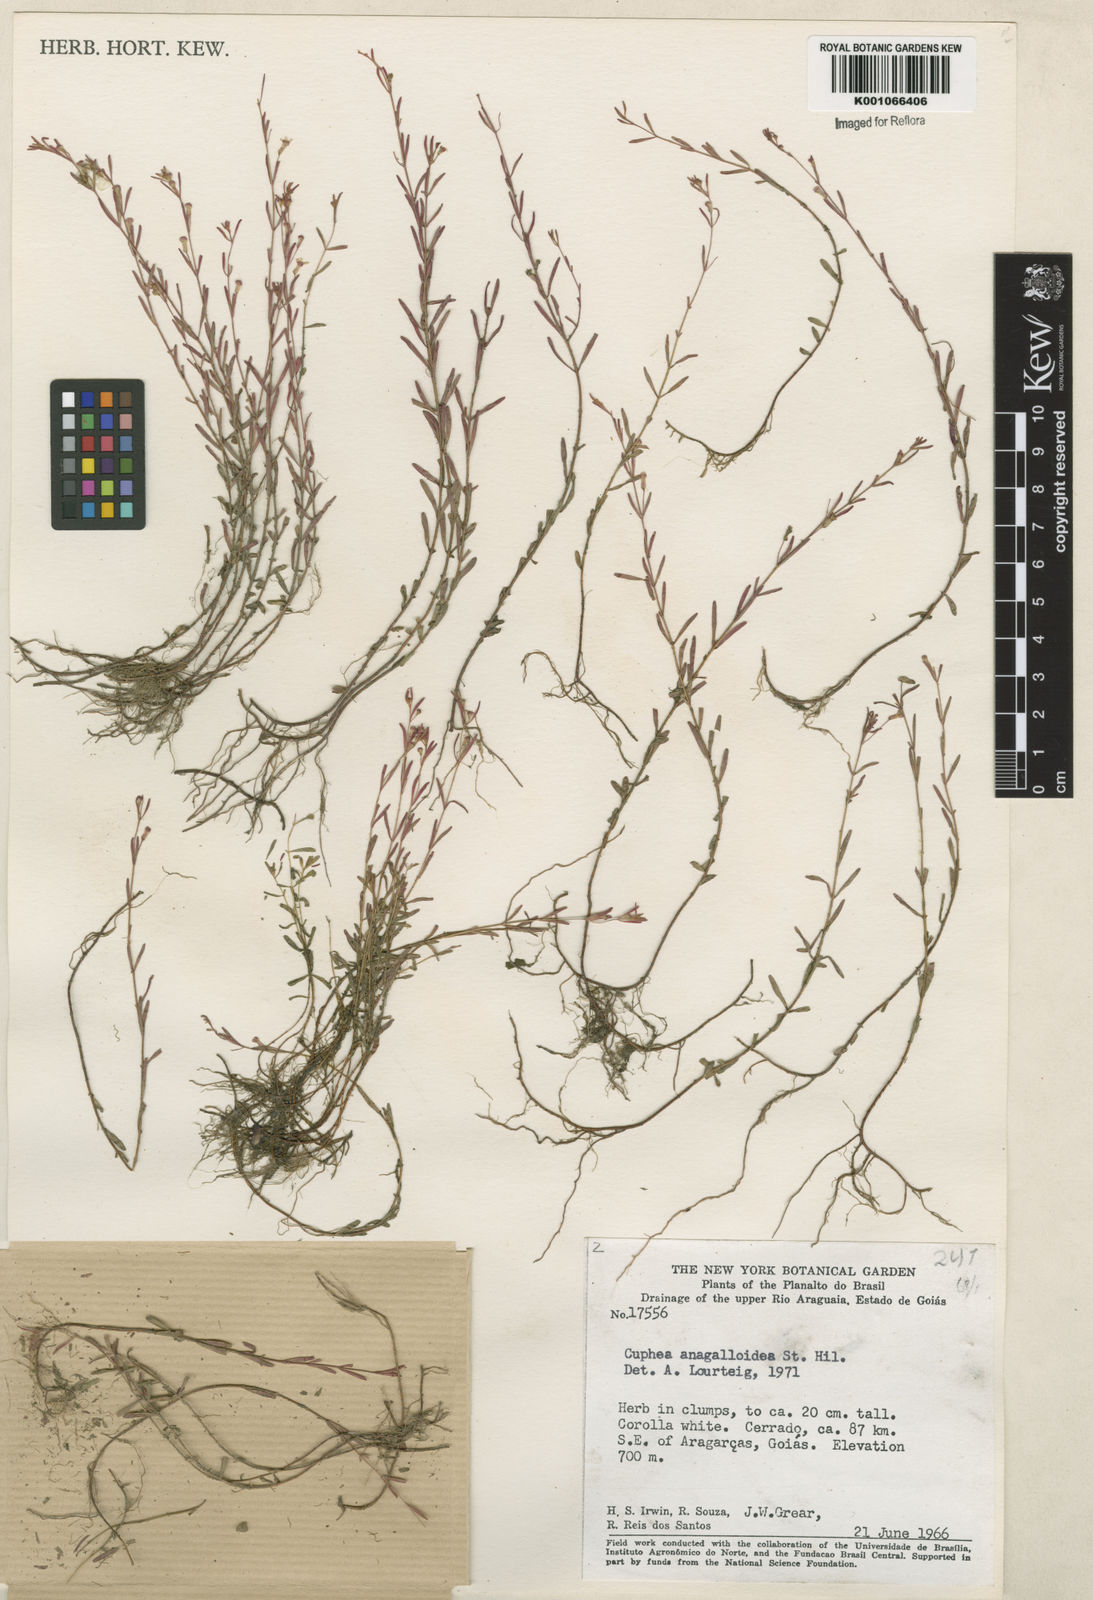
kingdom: Plantae
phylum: Tracheophyta
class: Magnoliopsida
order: Myrtales
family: Lythraceae
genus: Cuphea
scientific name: Cuphea anagalloidea
